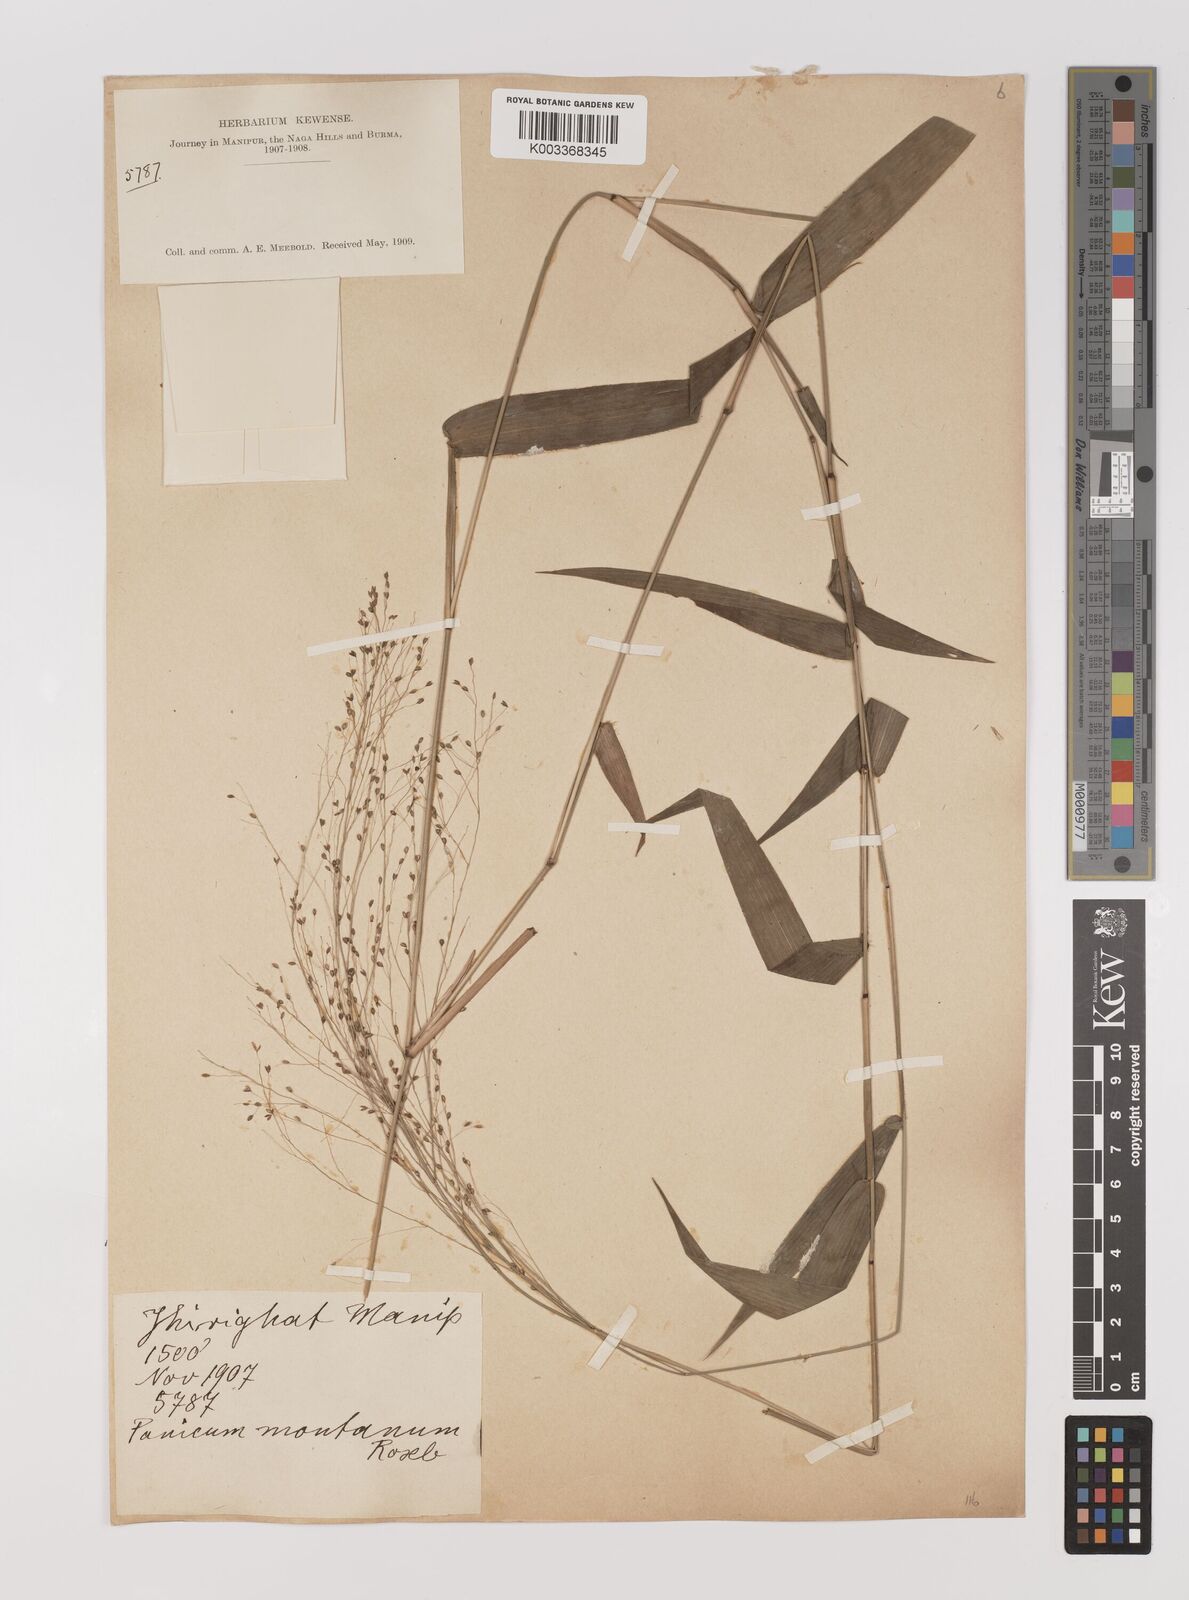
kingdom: Plantae
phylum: Tracheophyta
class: Liliopsida
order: Poales
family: Poaceae
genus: Panicum
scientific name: Panicum notatum
